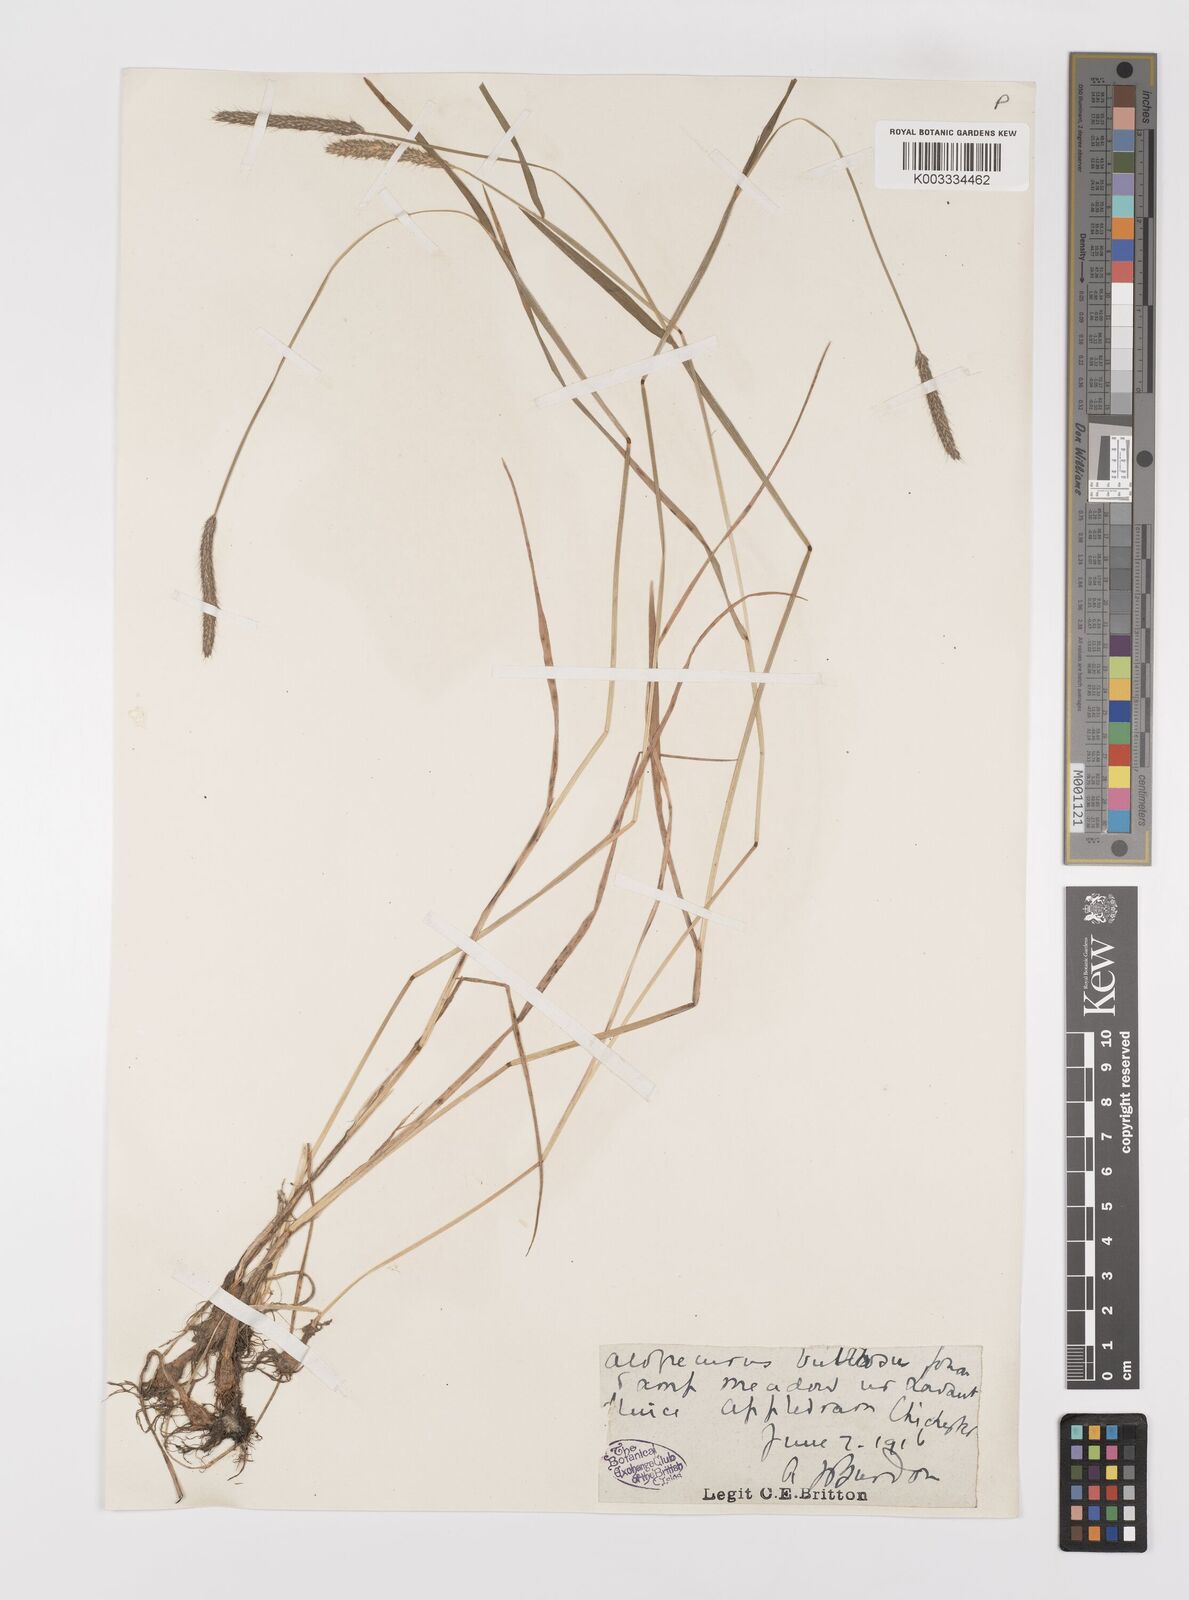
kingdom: Plantae
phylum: Tracheophyta
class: Liliopsida
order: Poales
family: Poaceae
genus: Alopecurus
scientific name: Alopecurus bulbosus
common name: Bulbous foxtail
